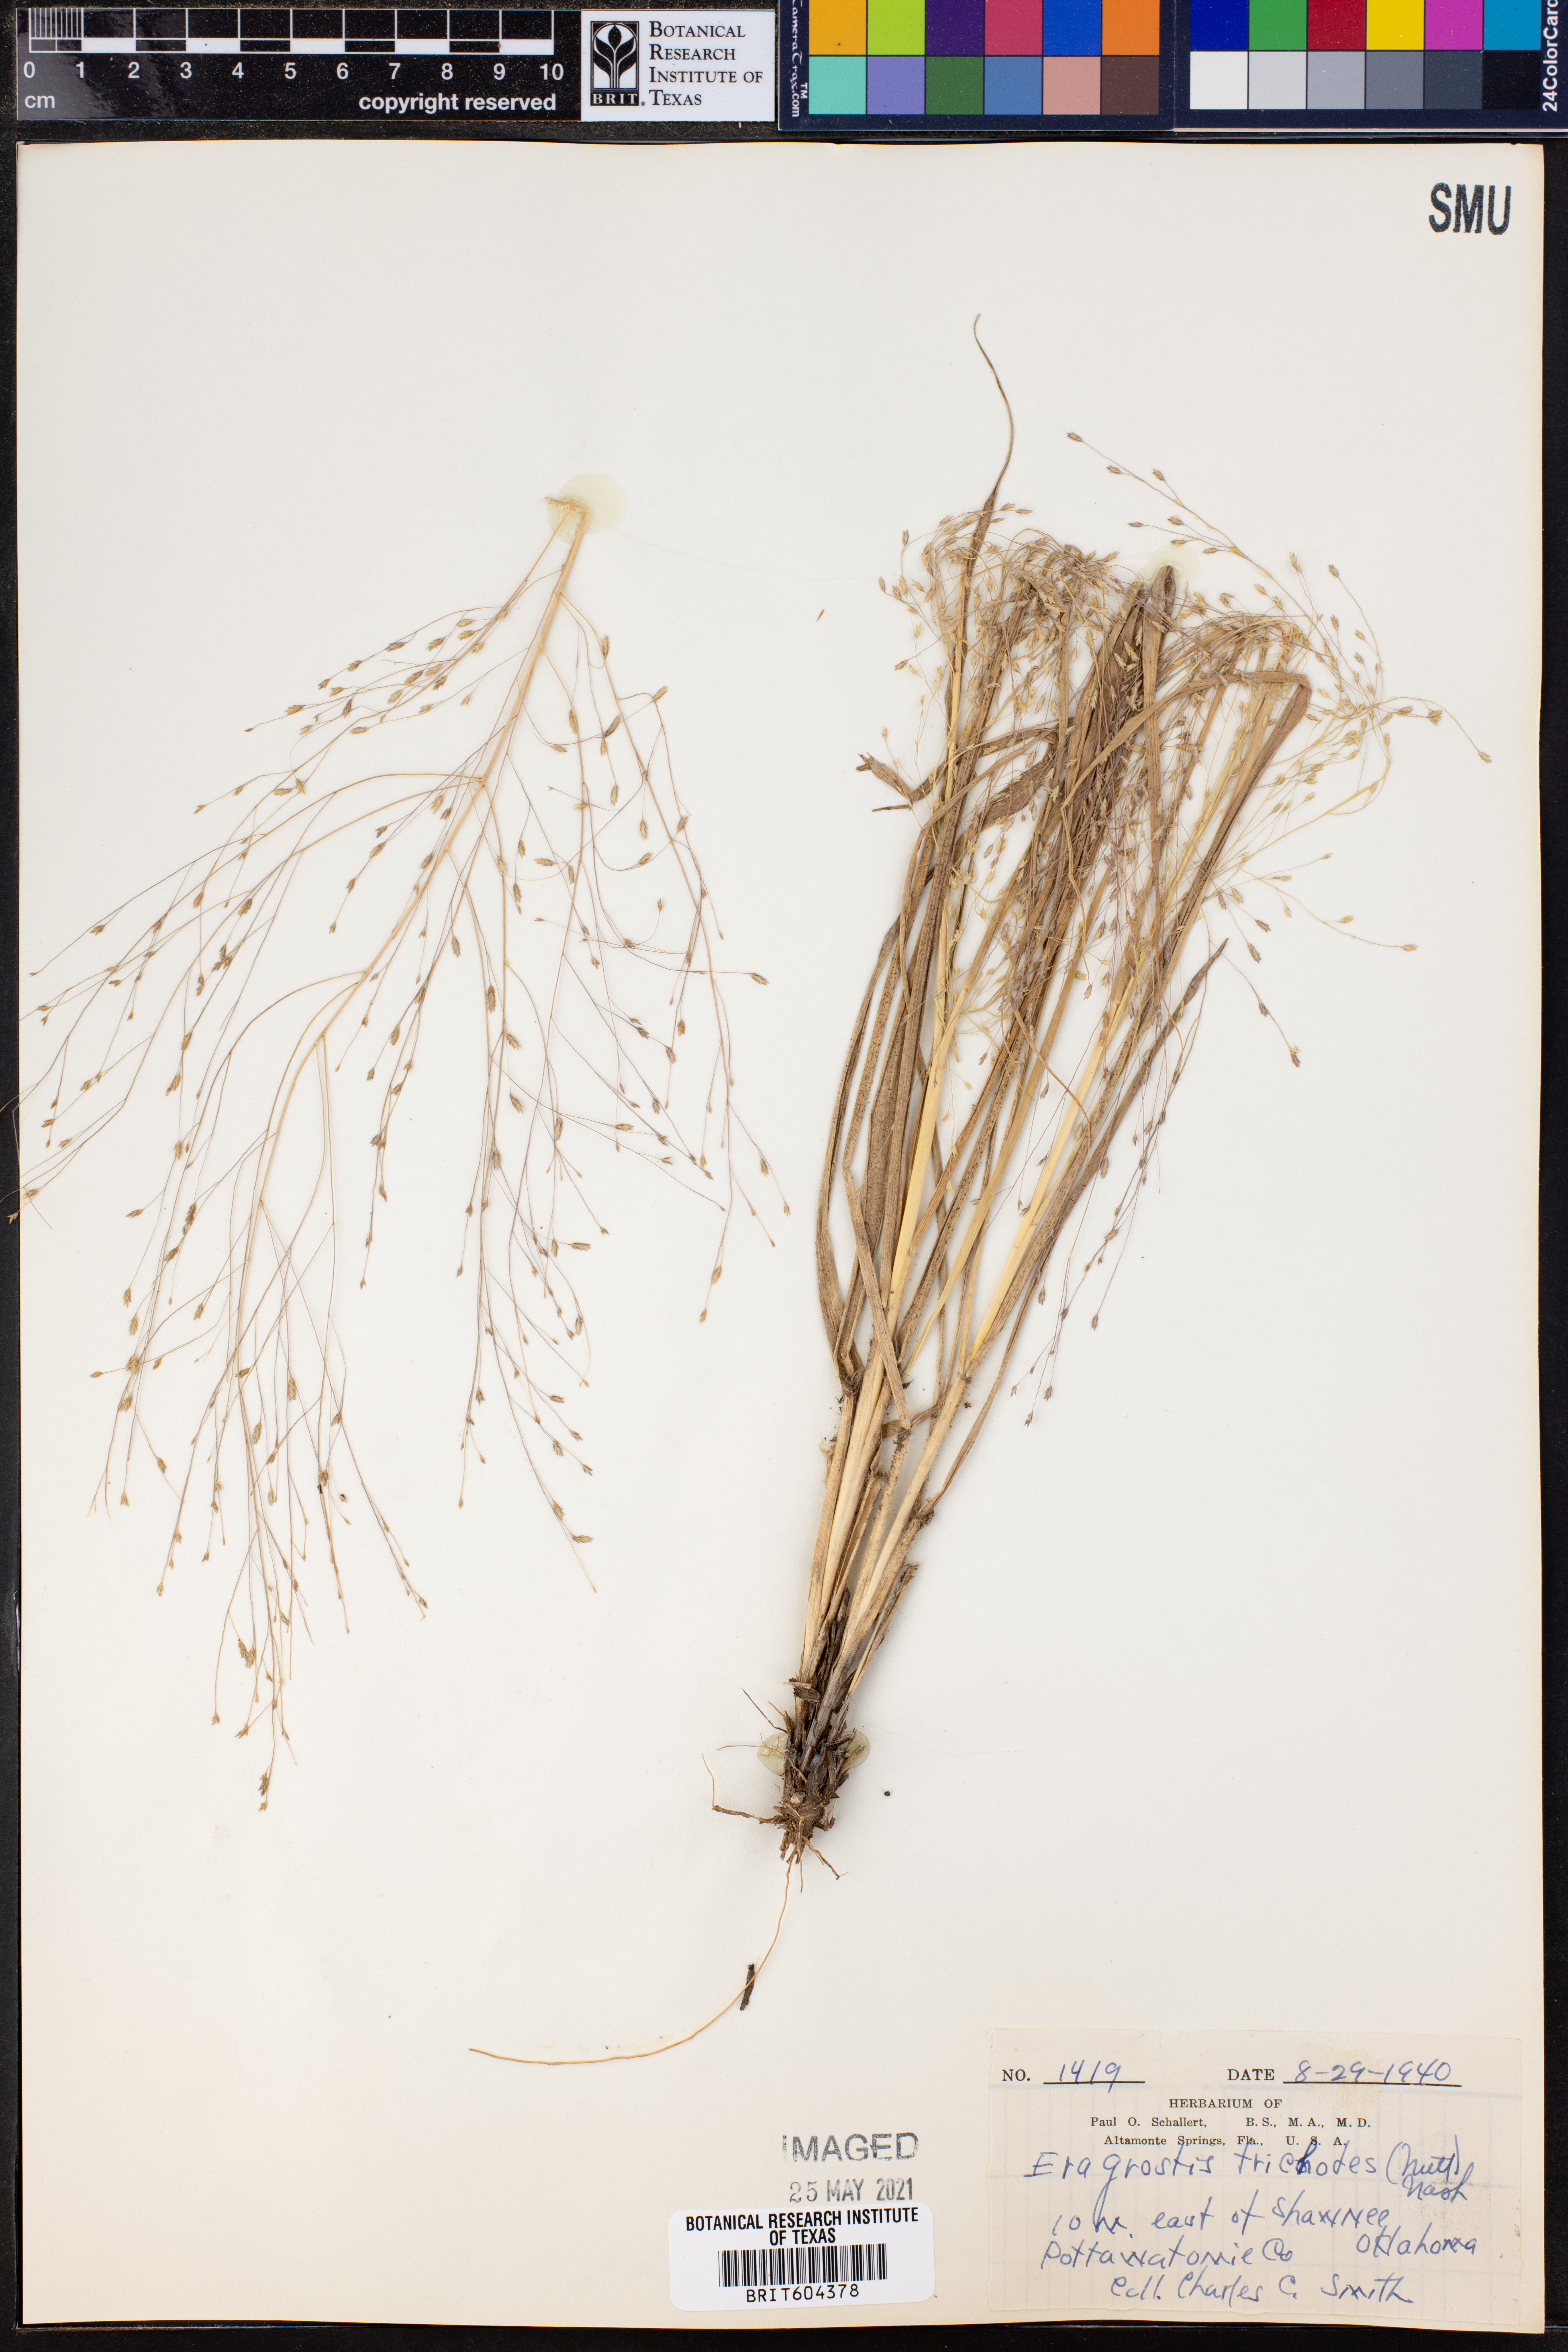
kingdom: Plantae
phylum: Tracheophyta
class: Liliopsida
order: Poales
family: Poaceae
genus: Eragrostis
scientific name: Eragrostis trichodes
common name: Sand love grass
